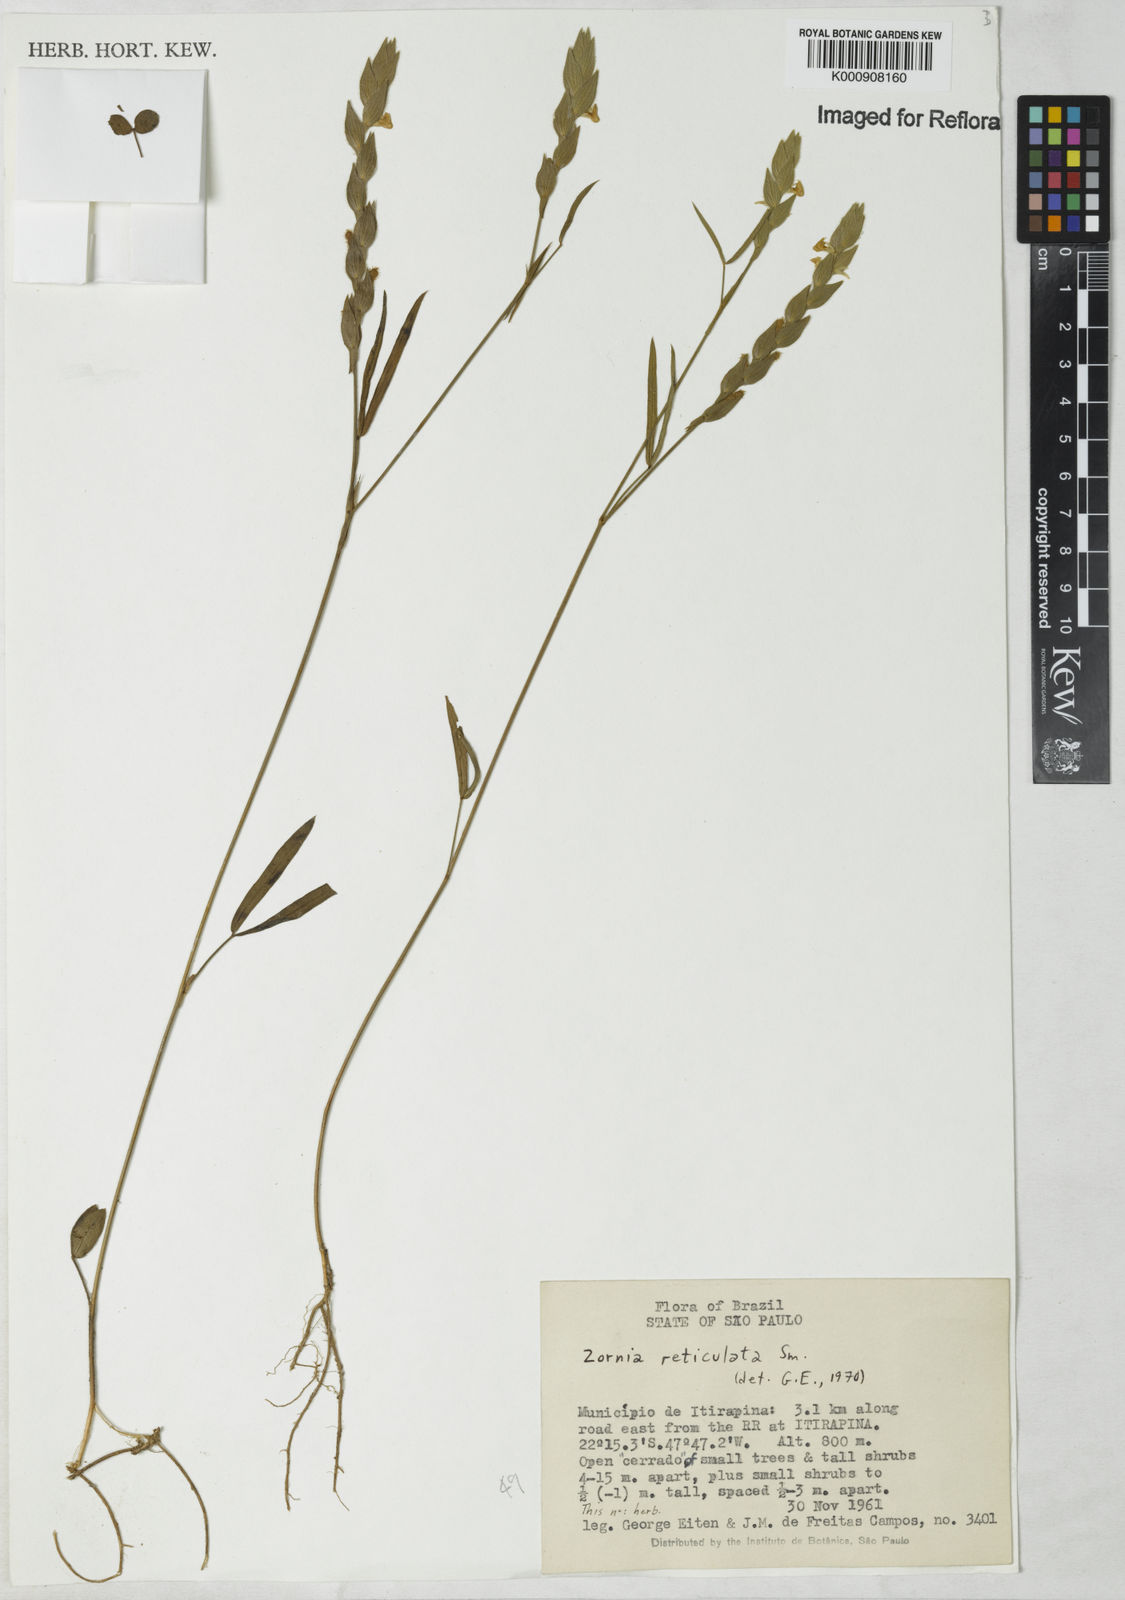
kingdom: Plantae
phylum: Tracheophyta
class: Magnoliopsida
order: Fabales
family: Fabaceae
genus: Zornia
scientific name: Zornia reticulata
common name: Reticulate viperina
